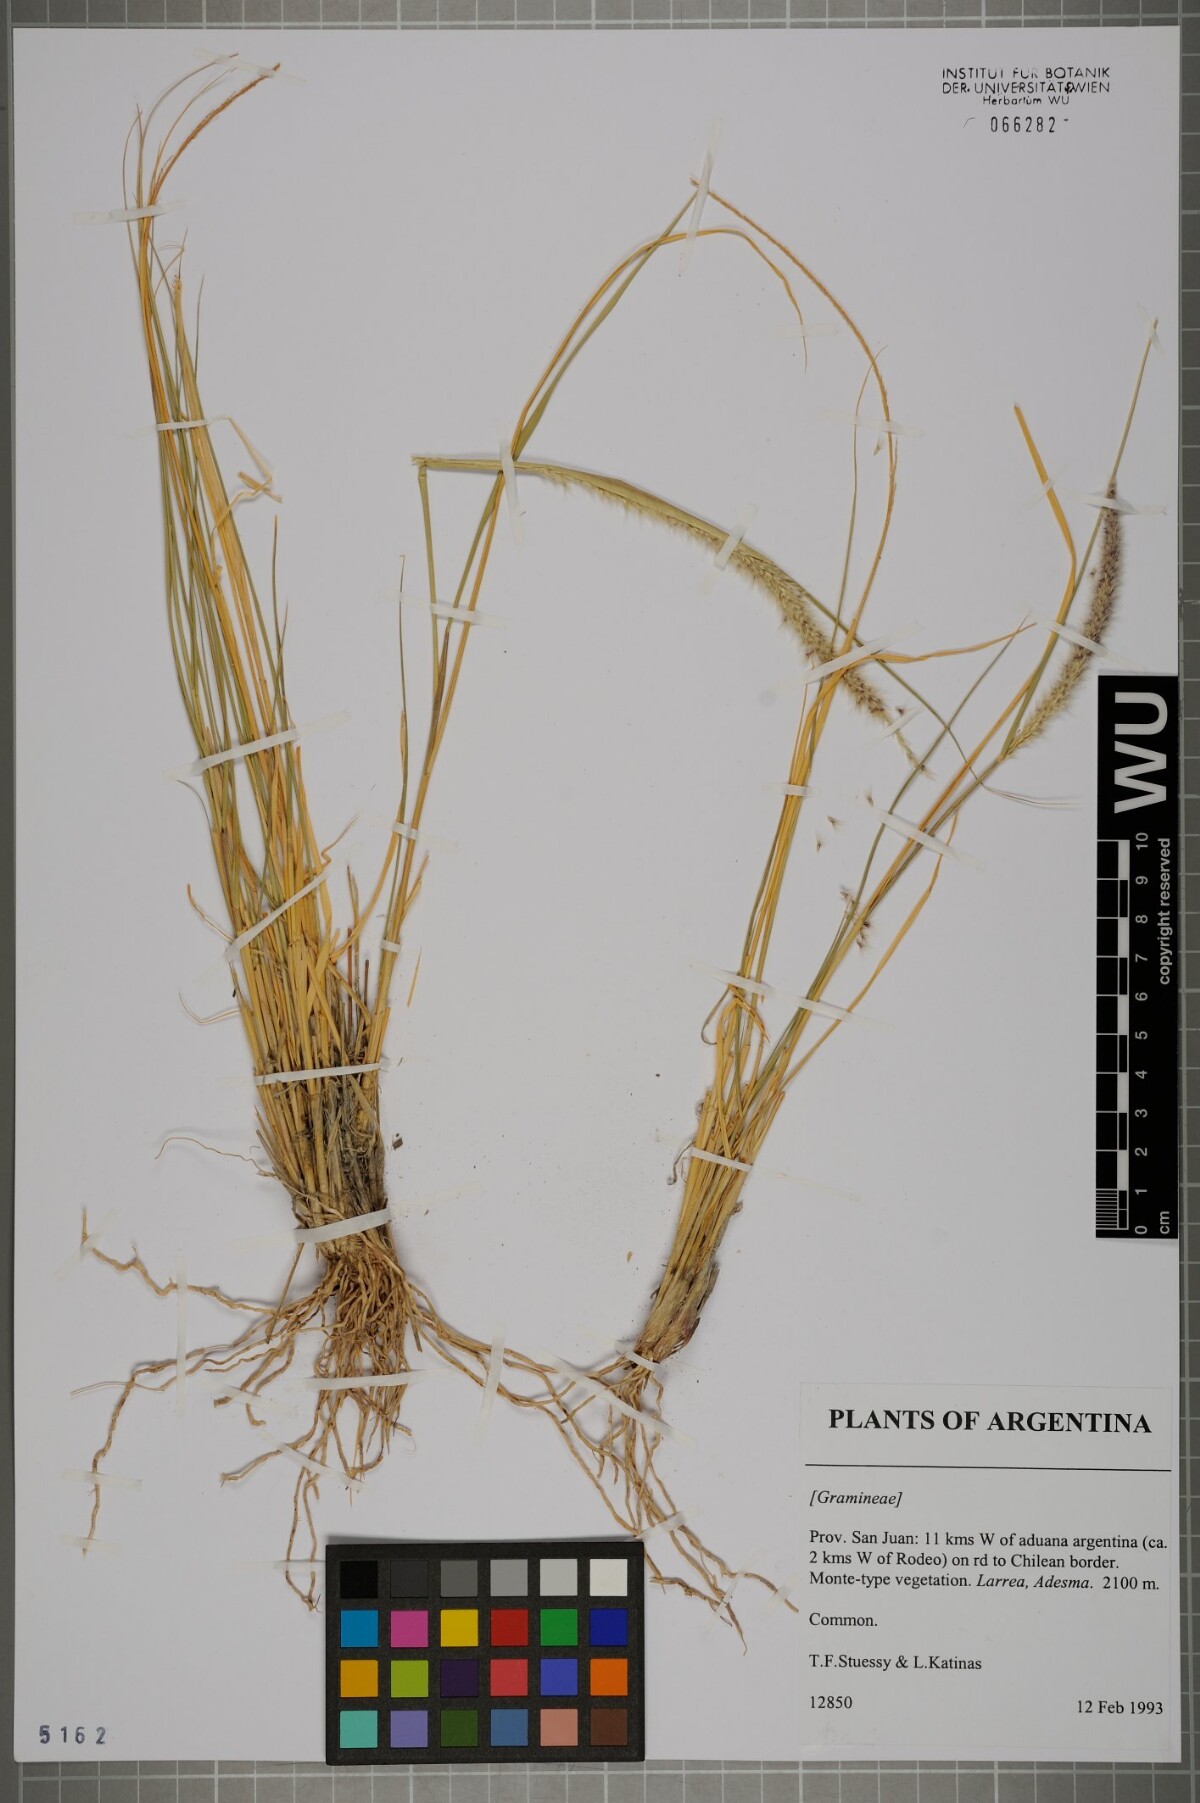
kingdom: Plantae
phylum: Tracheophyta
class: Liliopsida
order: Poales
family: Poaceae
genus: Pappophorum
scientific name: Pappophorum caespitosum
